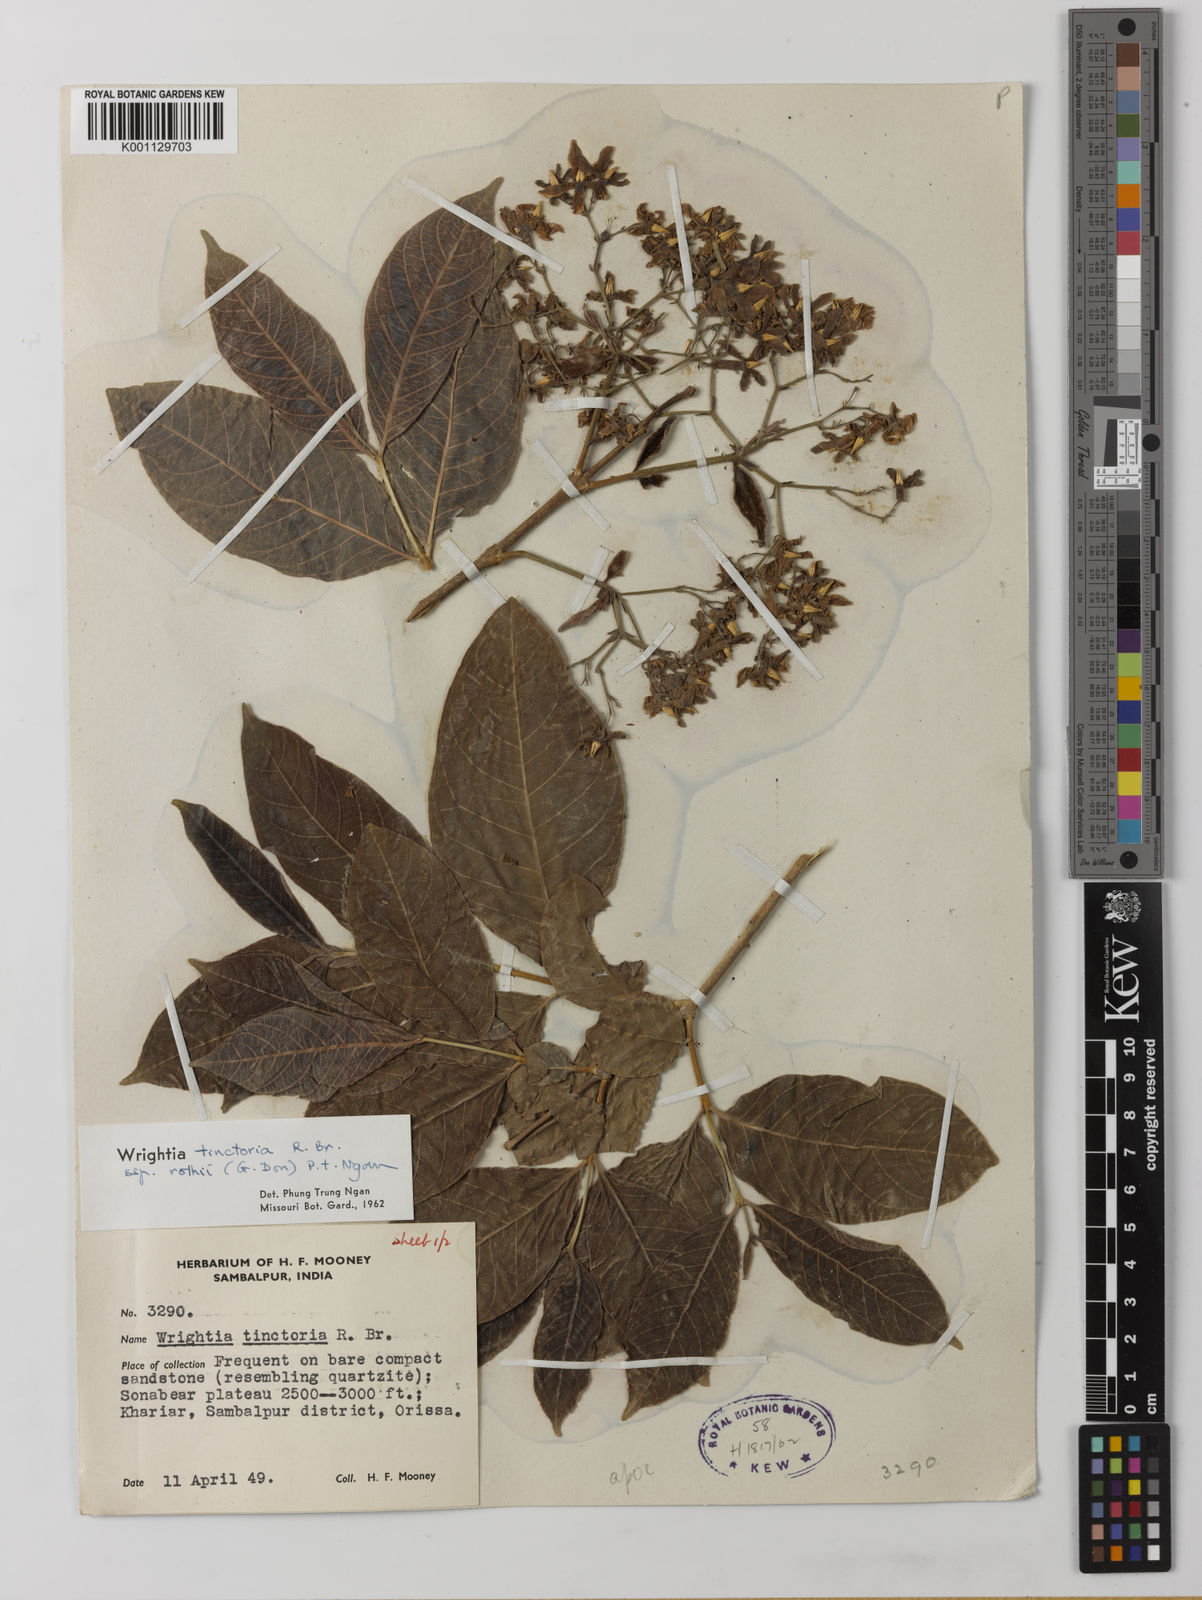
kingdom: Plantae
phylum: Tracheophyta
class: Magnoliopsida
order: Gentianales
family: Apocynaceae
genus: Wrightia
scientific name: Wrightia tinctoria
